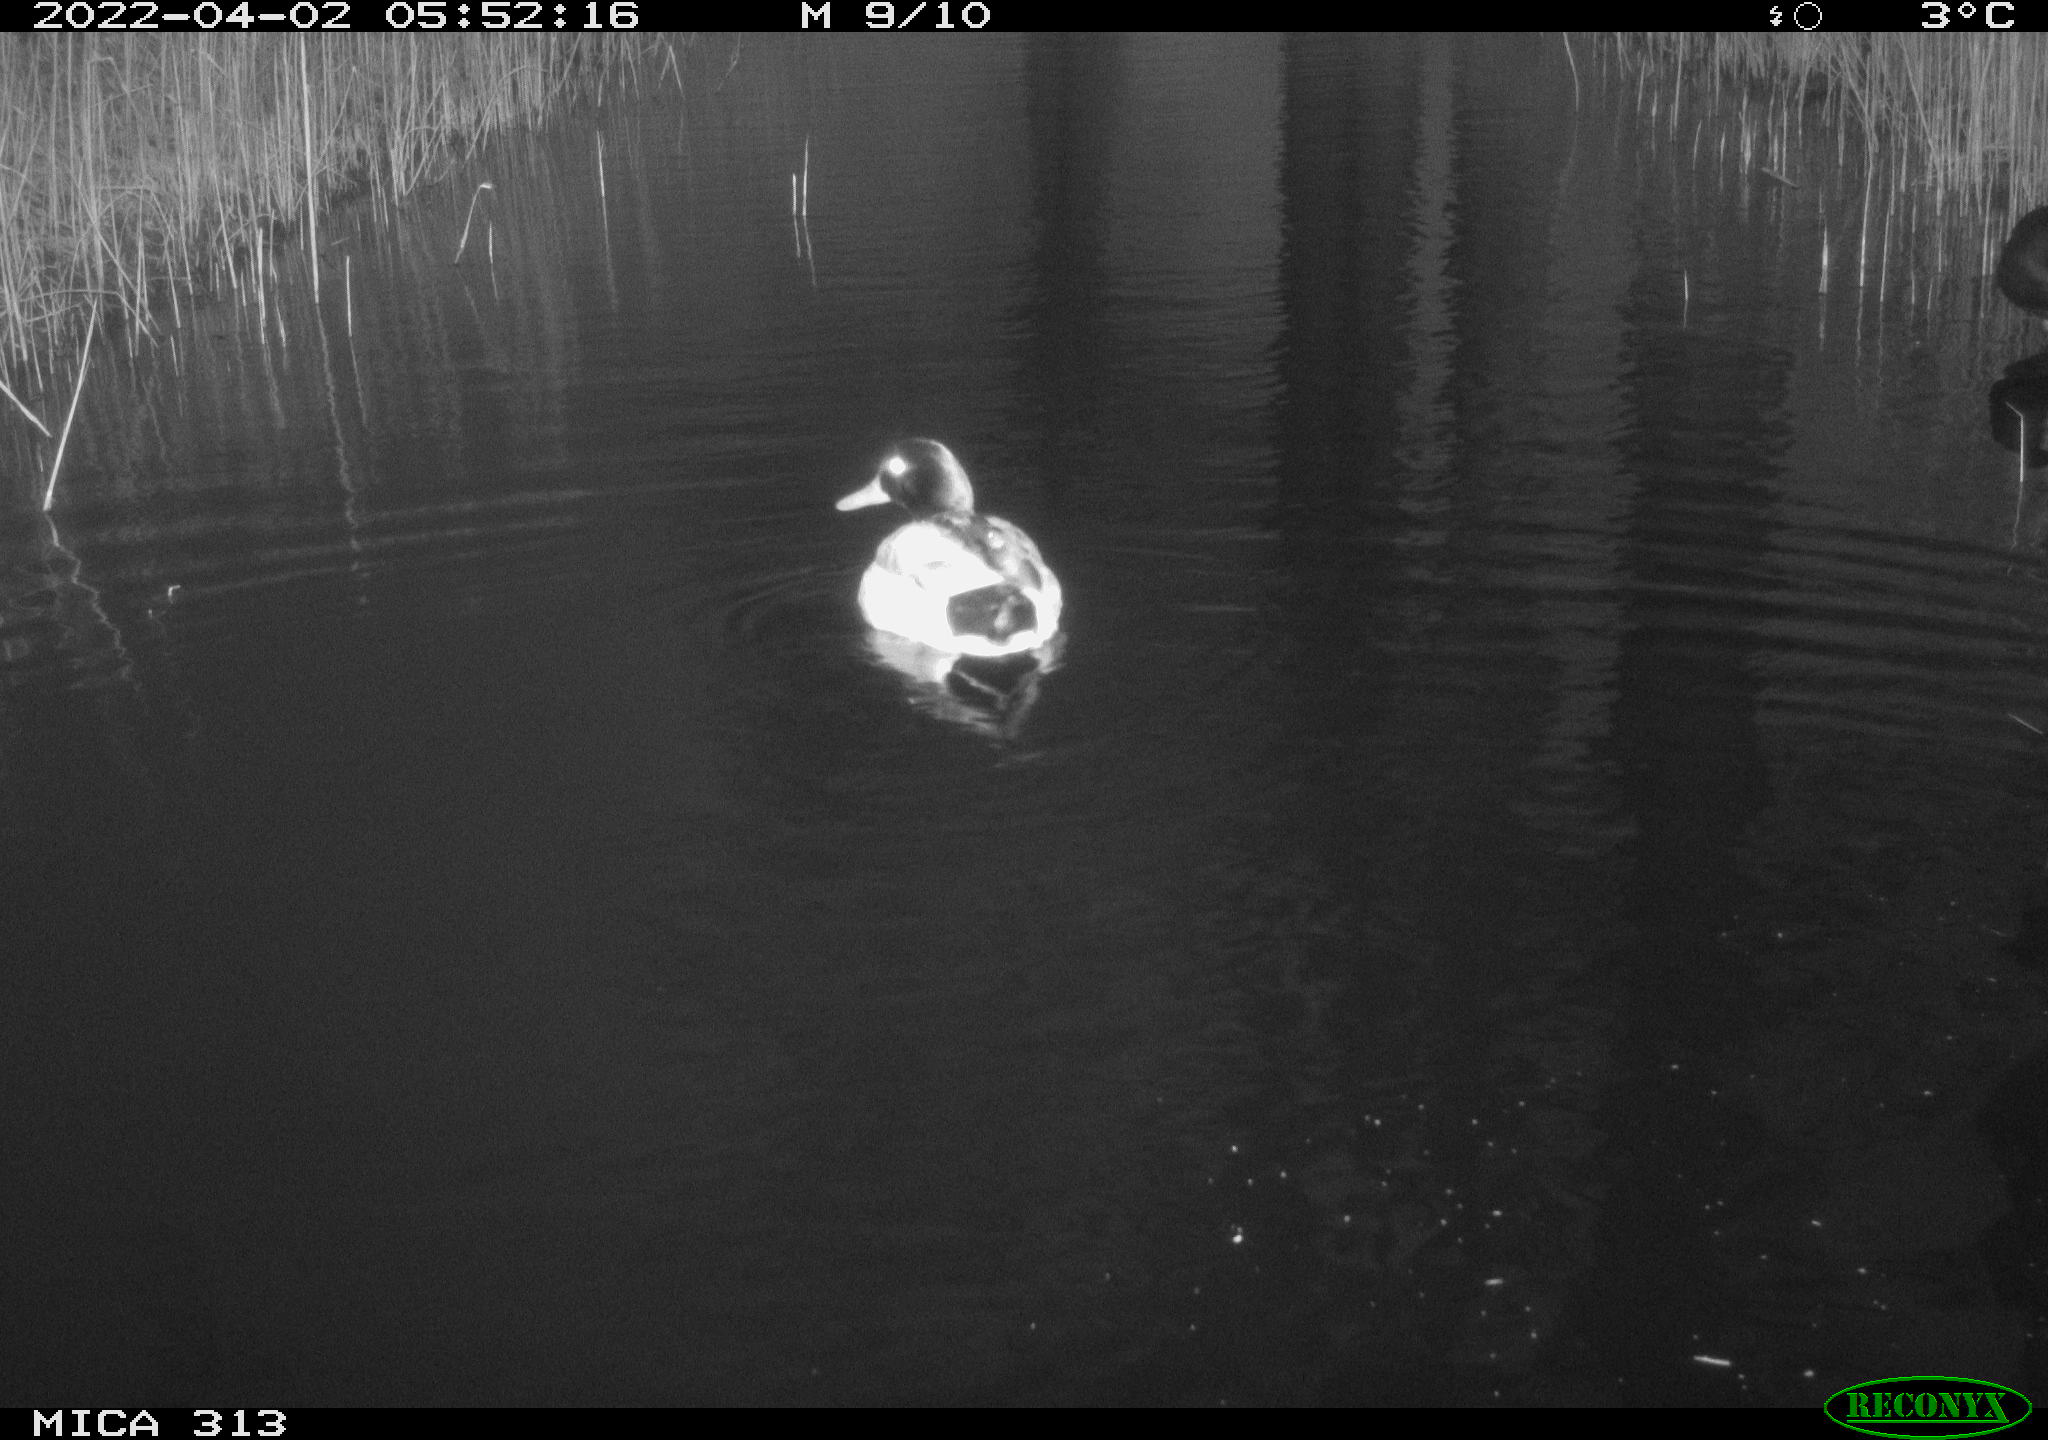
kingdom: Animalia
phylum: Chordata
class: Aves
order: Anseriformes
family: Anatidae
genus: Anas
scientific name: Anas platyrhynchos
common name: Mallard
